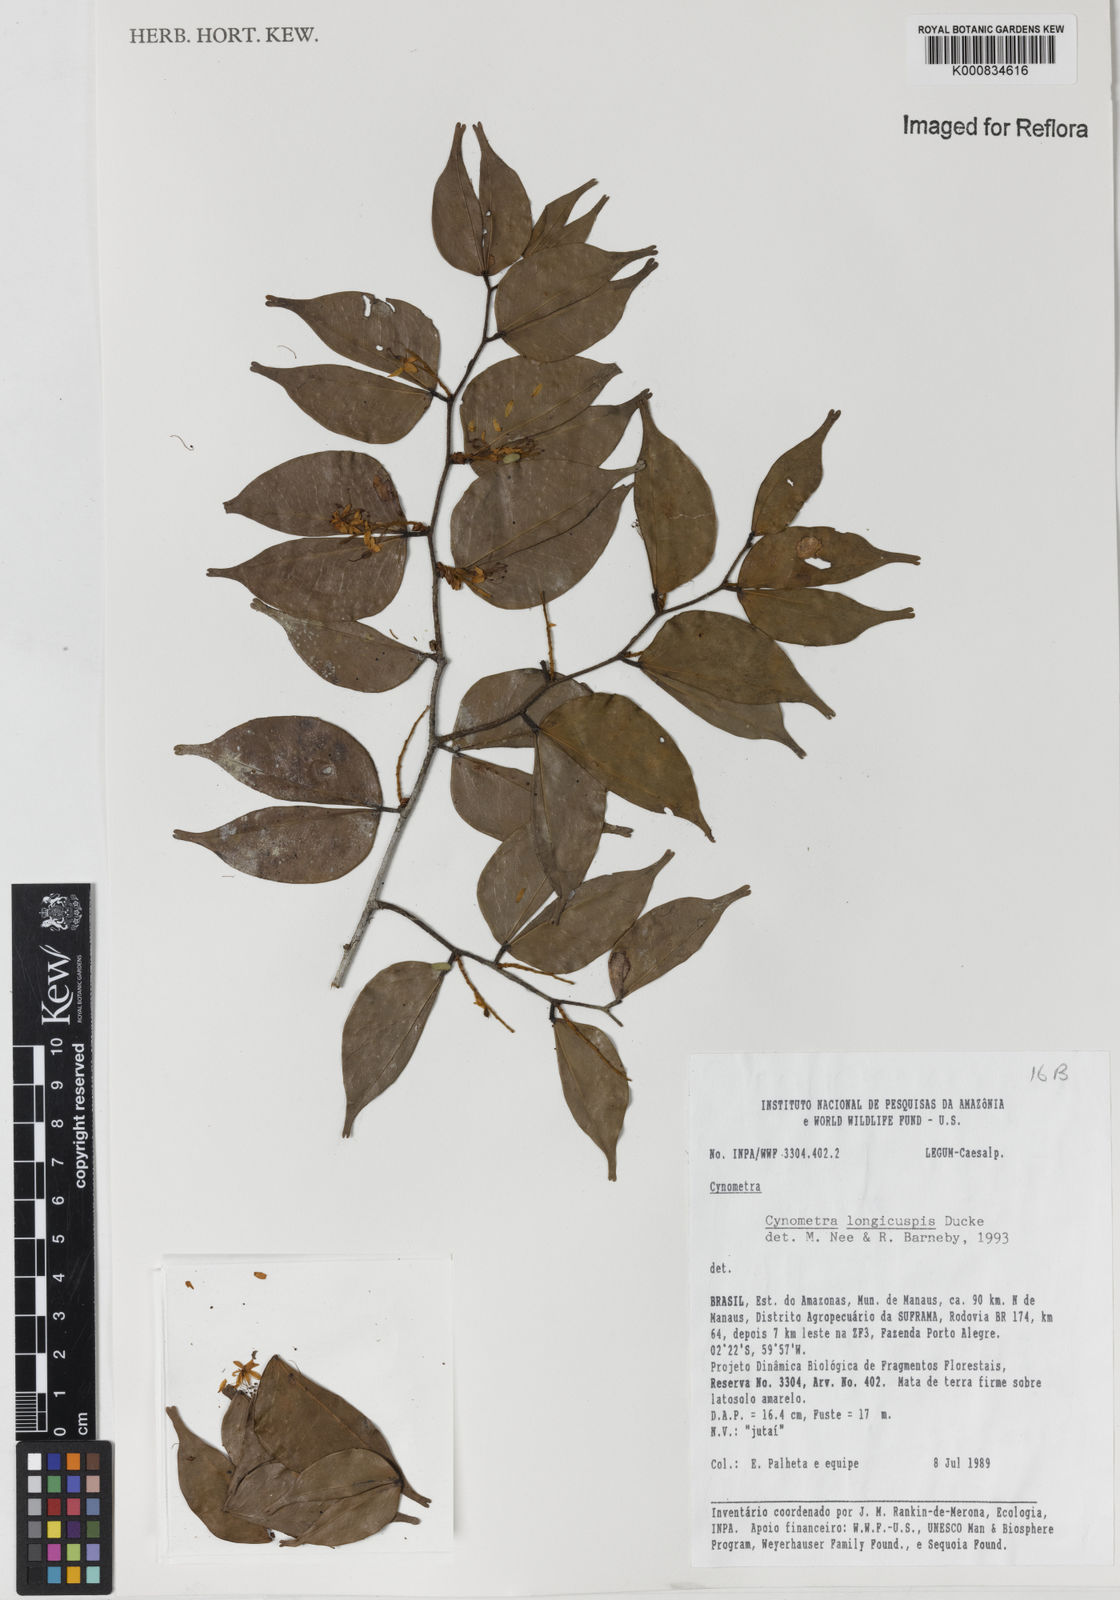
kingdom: Plantae
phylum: Tracheophyta
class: Magnoliopsida
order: Fabales
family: Fabaceae
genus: Cynometra
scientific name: Cynometra longicuspis
